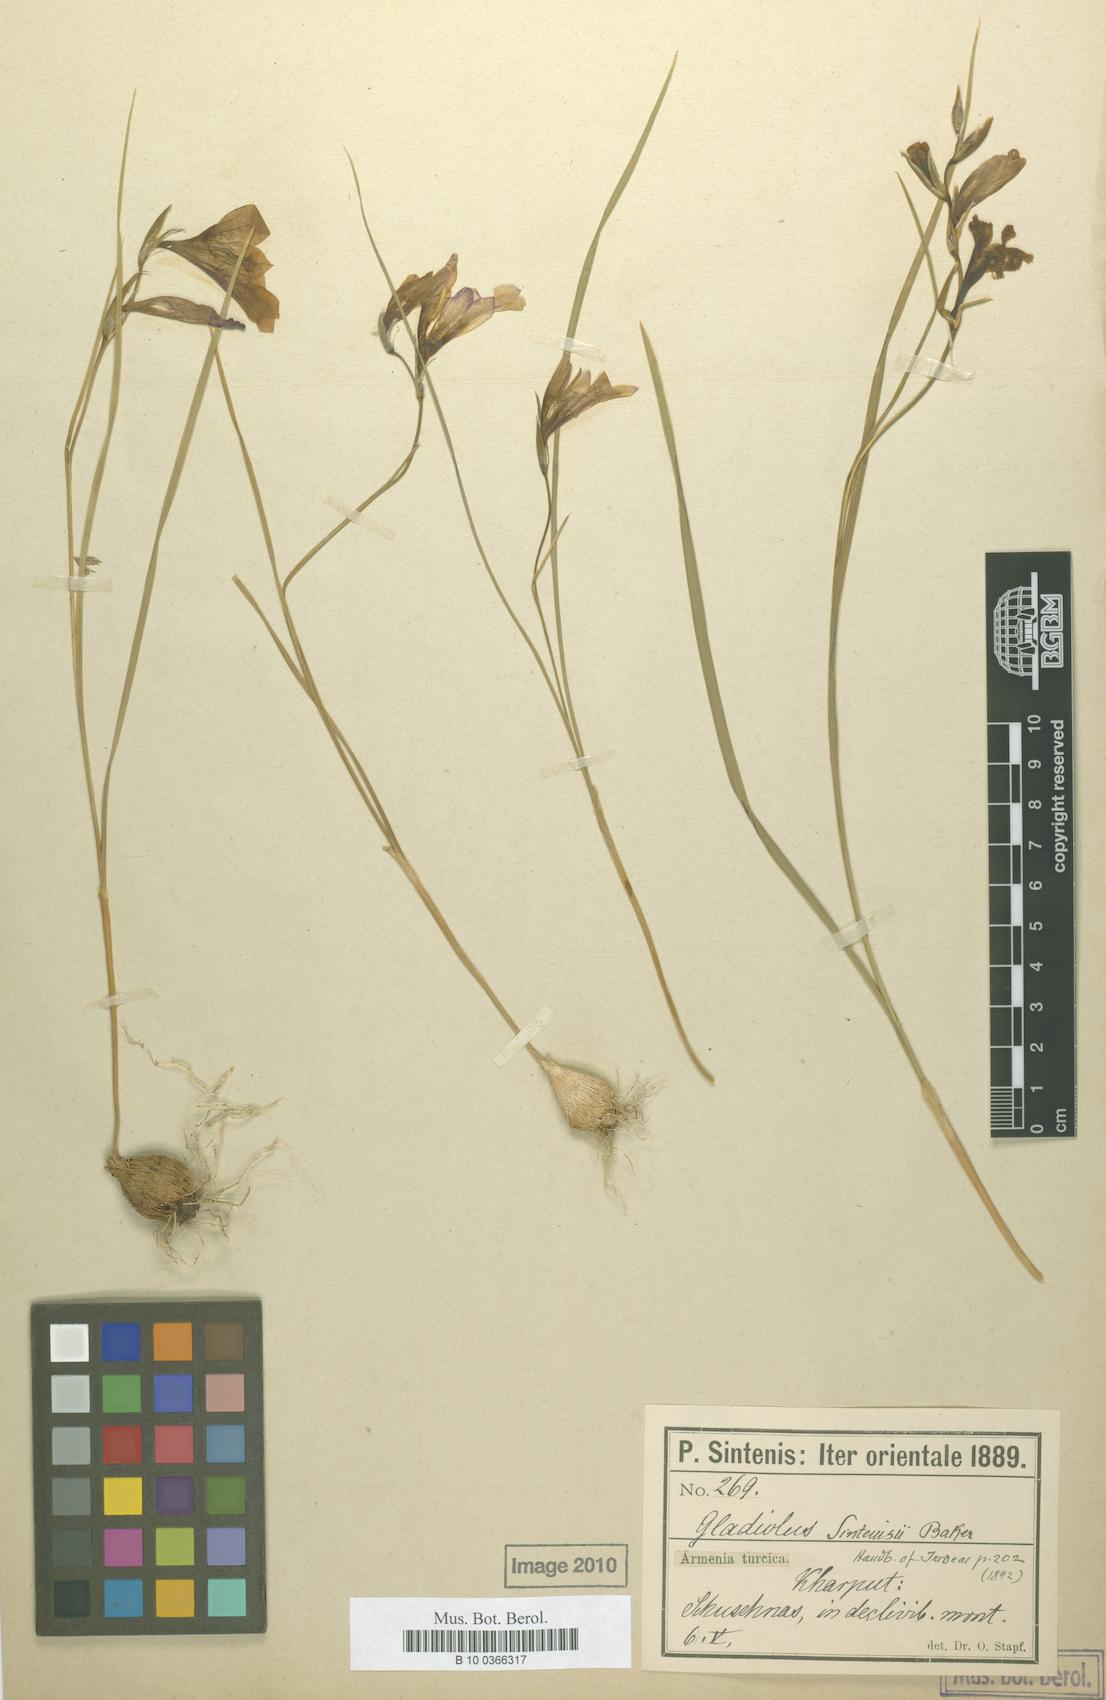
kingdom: Plantae
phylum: Tracheophyta
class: Liliopsida
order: Asparagales
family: Iridaceae
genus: Gladiolus
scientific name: Gladiolus atroviolaceus
